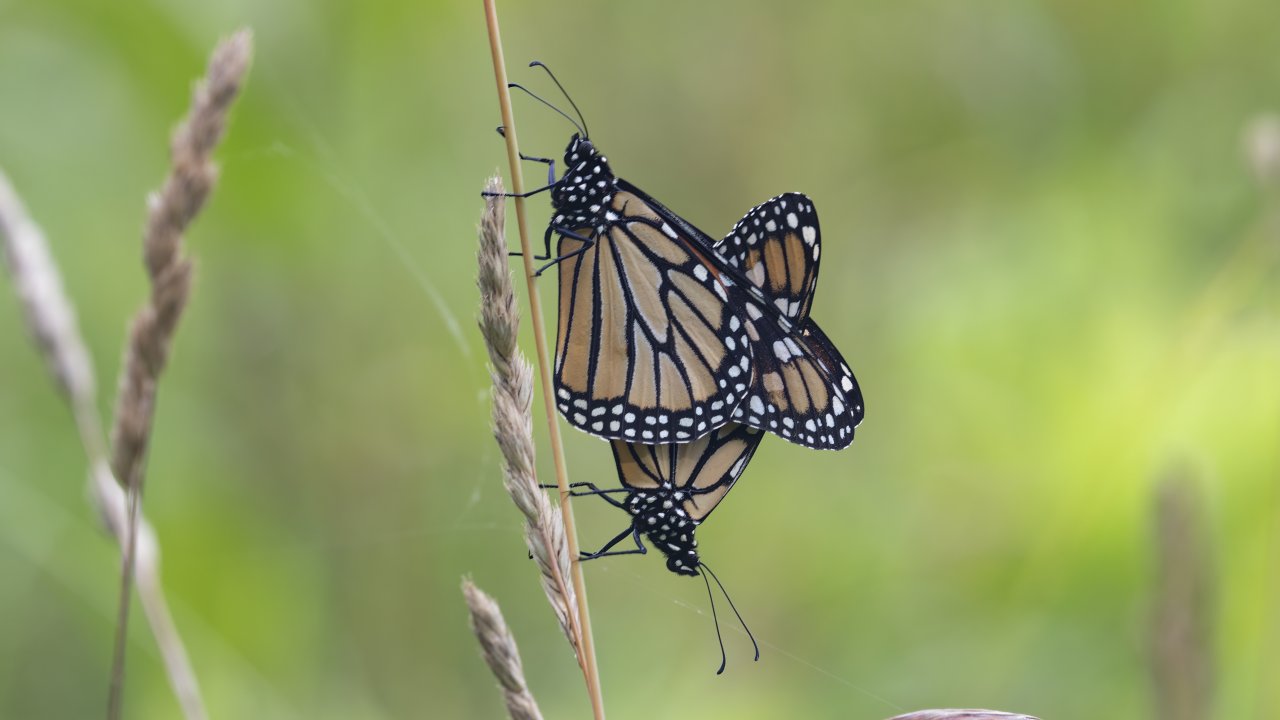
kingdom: Animalia
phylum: Arthropoda
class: Insecta
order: Lepidoptera
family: Nymphalidae
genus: Danaus
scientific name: Danaus plexippus
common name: Monarch
